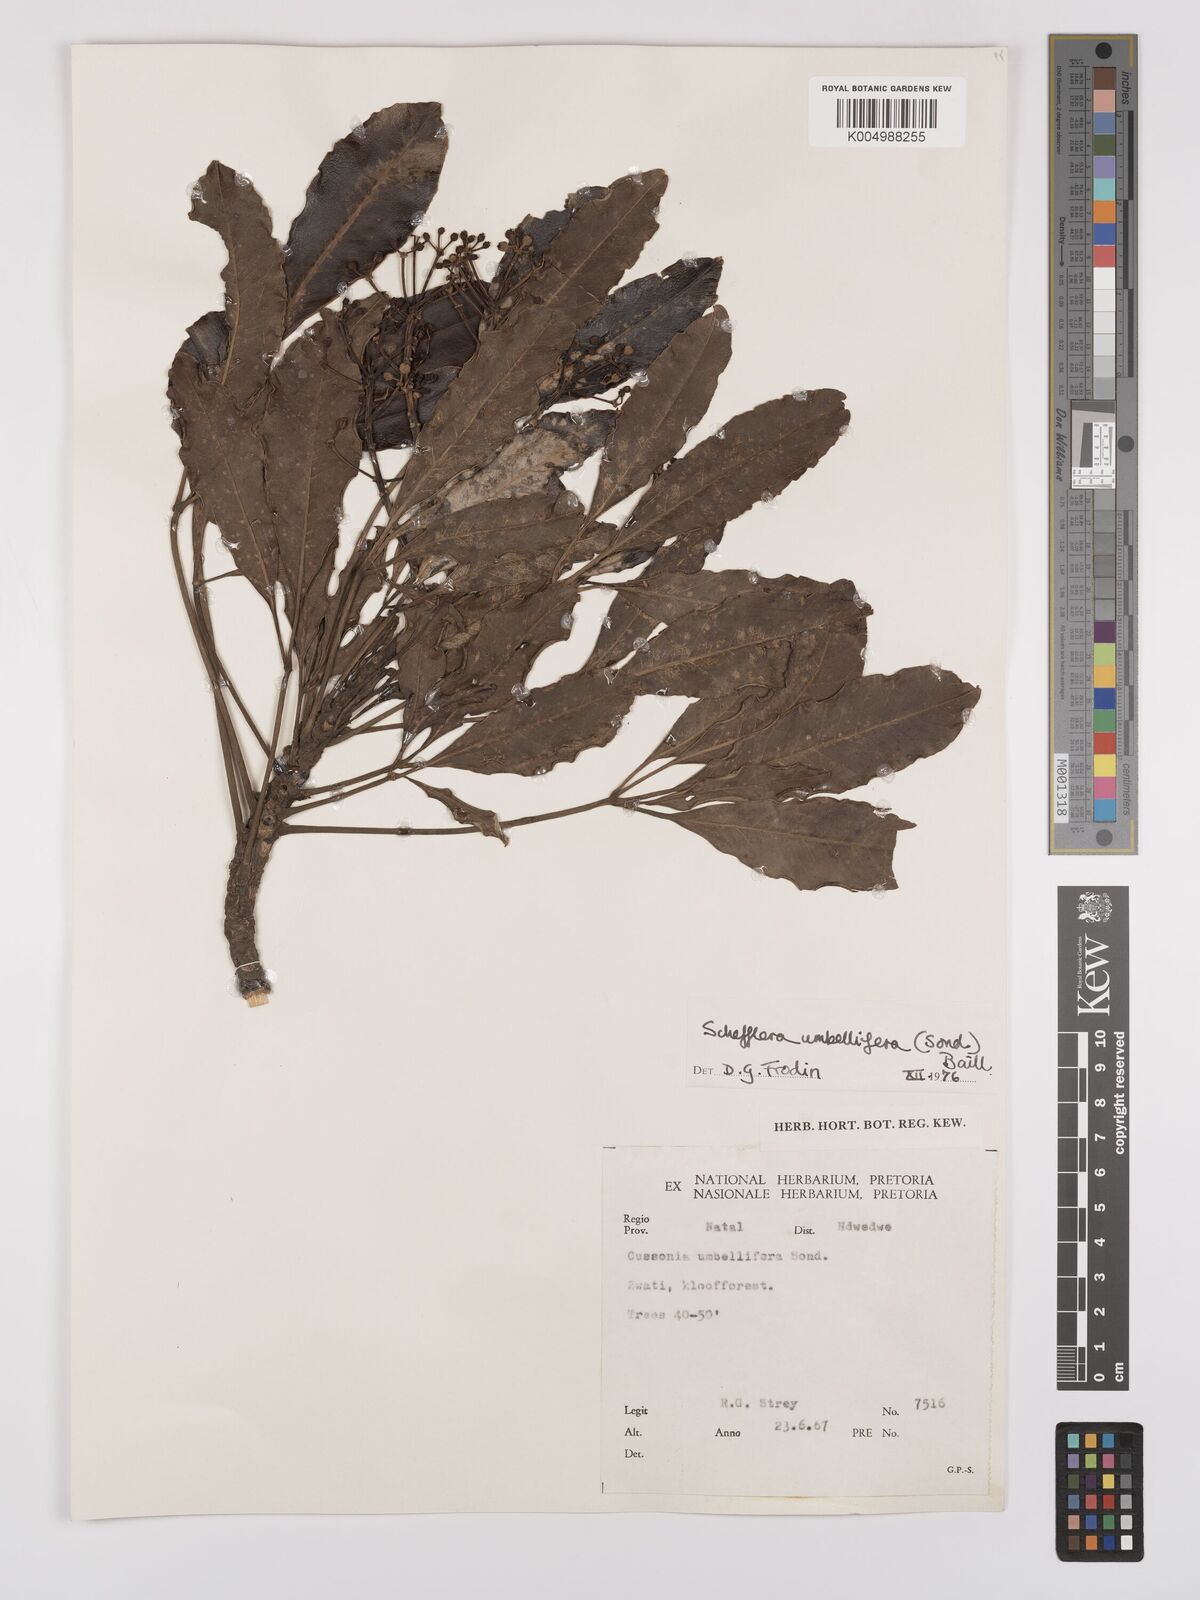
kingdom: Plantae
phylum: Tracheophyta
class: Magnoliopsida
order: Apiales
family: Araliaceae
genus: Neocussonia
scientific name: Neocussonia umbellifera
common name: False cabbage tree
